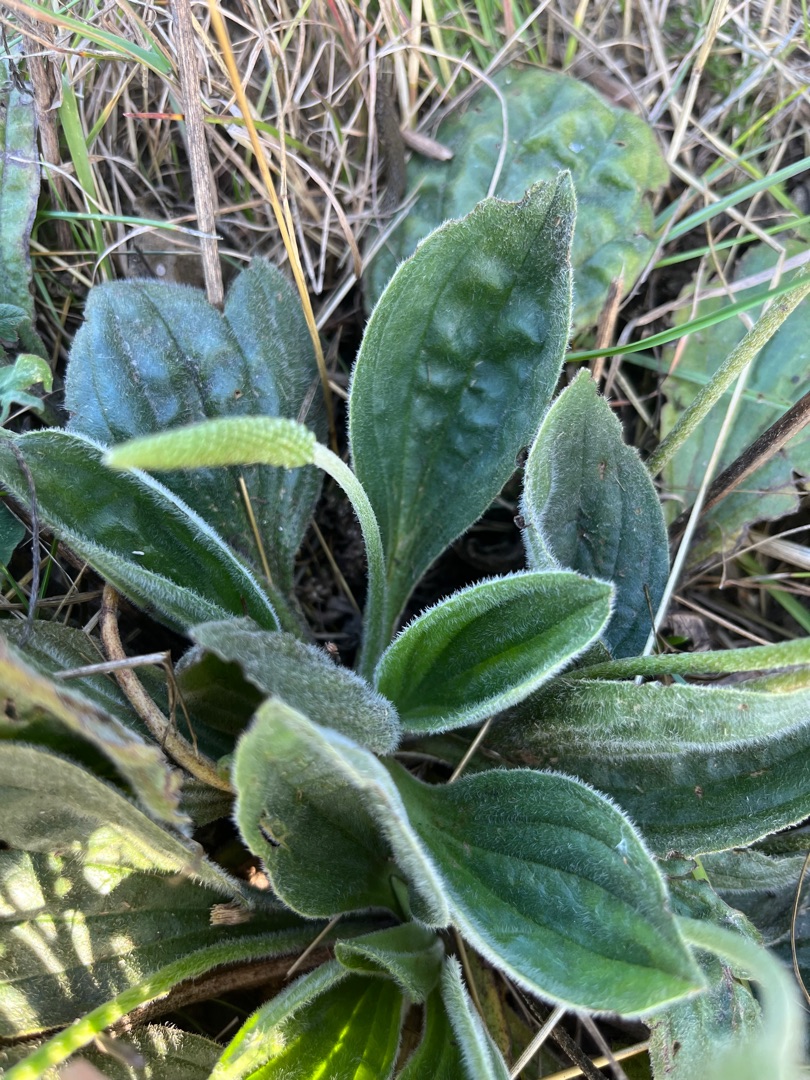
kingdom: Plantae
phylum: Tracheophyta
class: Magnoliopsida
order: Lamiales
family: Plantaginaceae
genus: Plantago
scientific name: Plantago media
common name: Dunet vejbred
